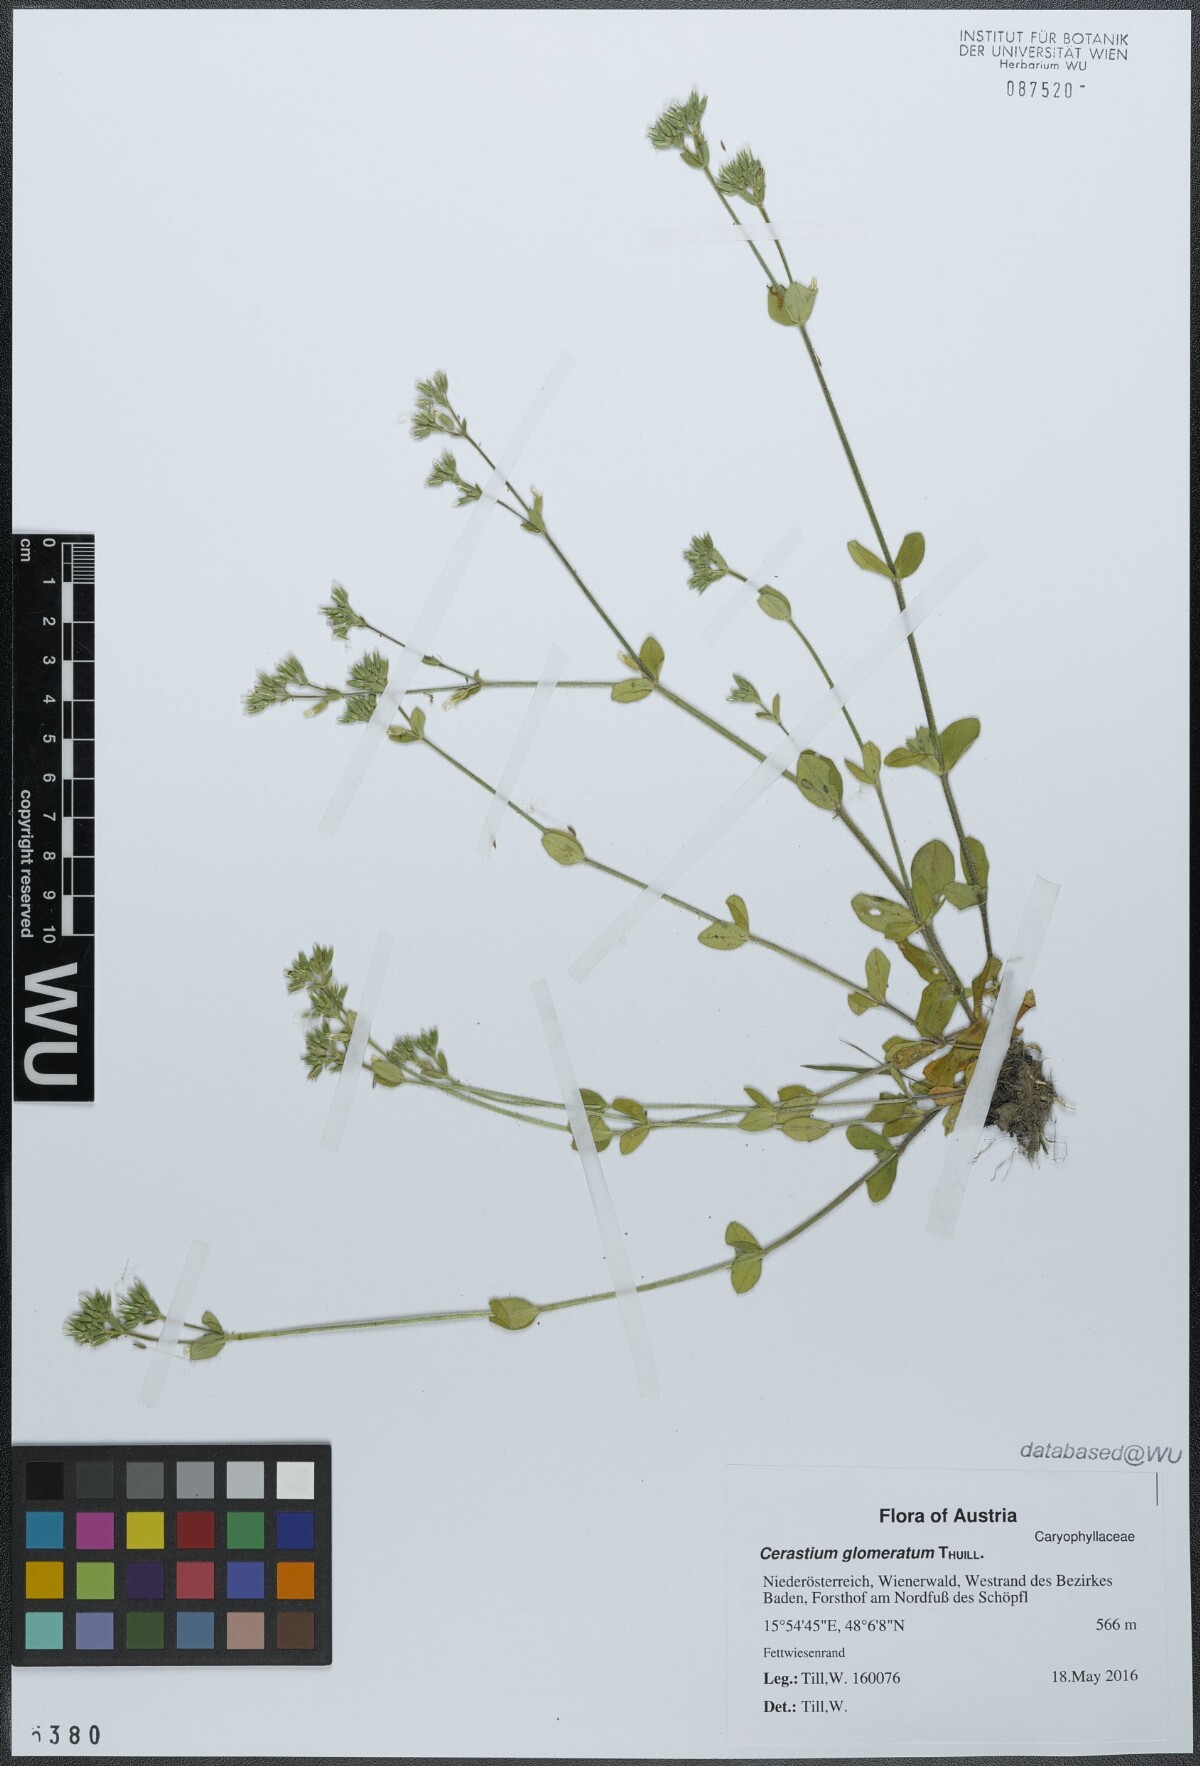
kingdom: Plantae
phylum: Tracheophyta
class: Magnoliopsida
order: Caryophyllales
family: Caryophyllaceae
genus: Cerastium
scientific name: Cerastium glomeratum
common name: Sticky chickweed
